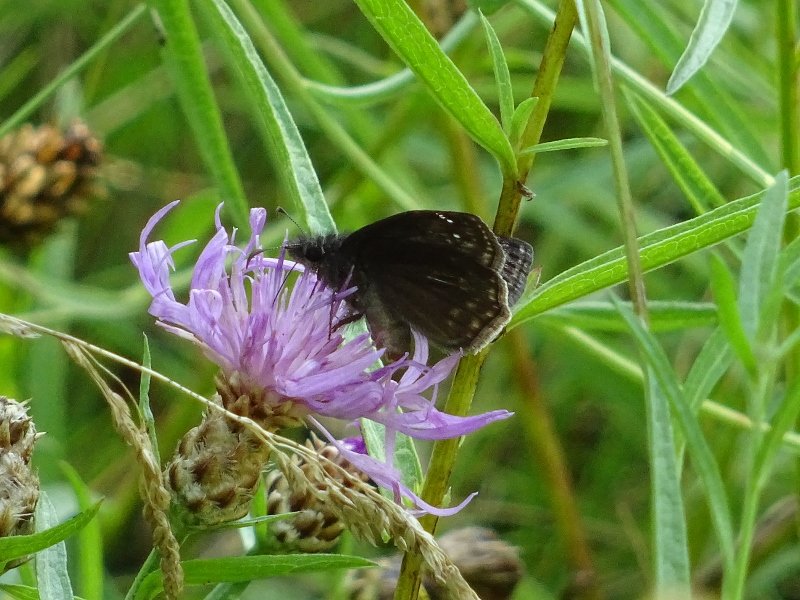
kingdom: Animalia
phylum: Arthropoda
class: Insecta
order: Lepidoptera
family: Hesperiidae
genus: Gesta
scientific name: Gesta
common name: Wild Indigo Duskywing
